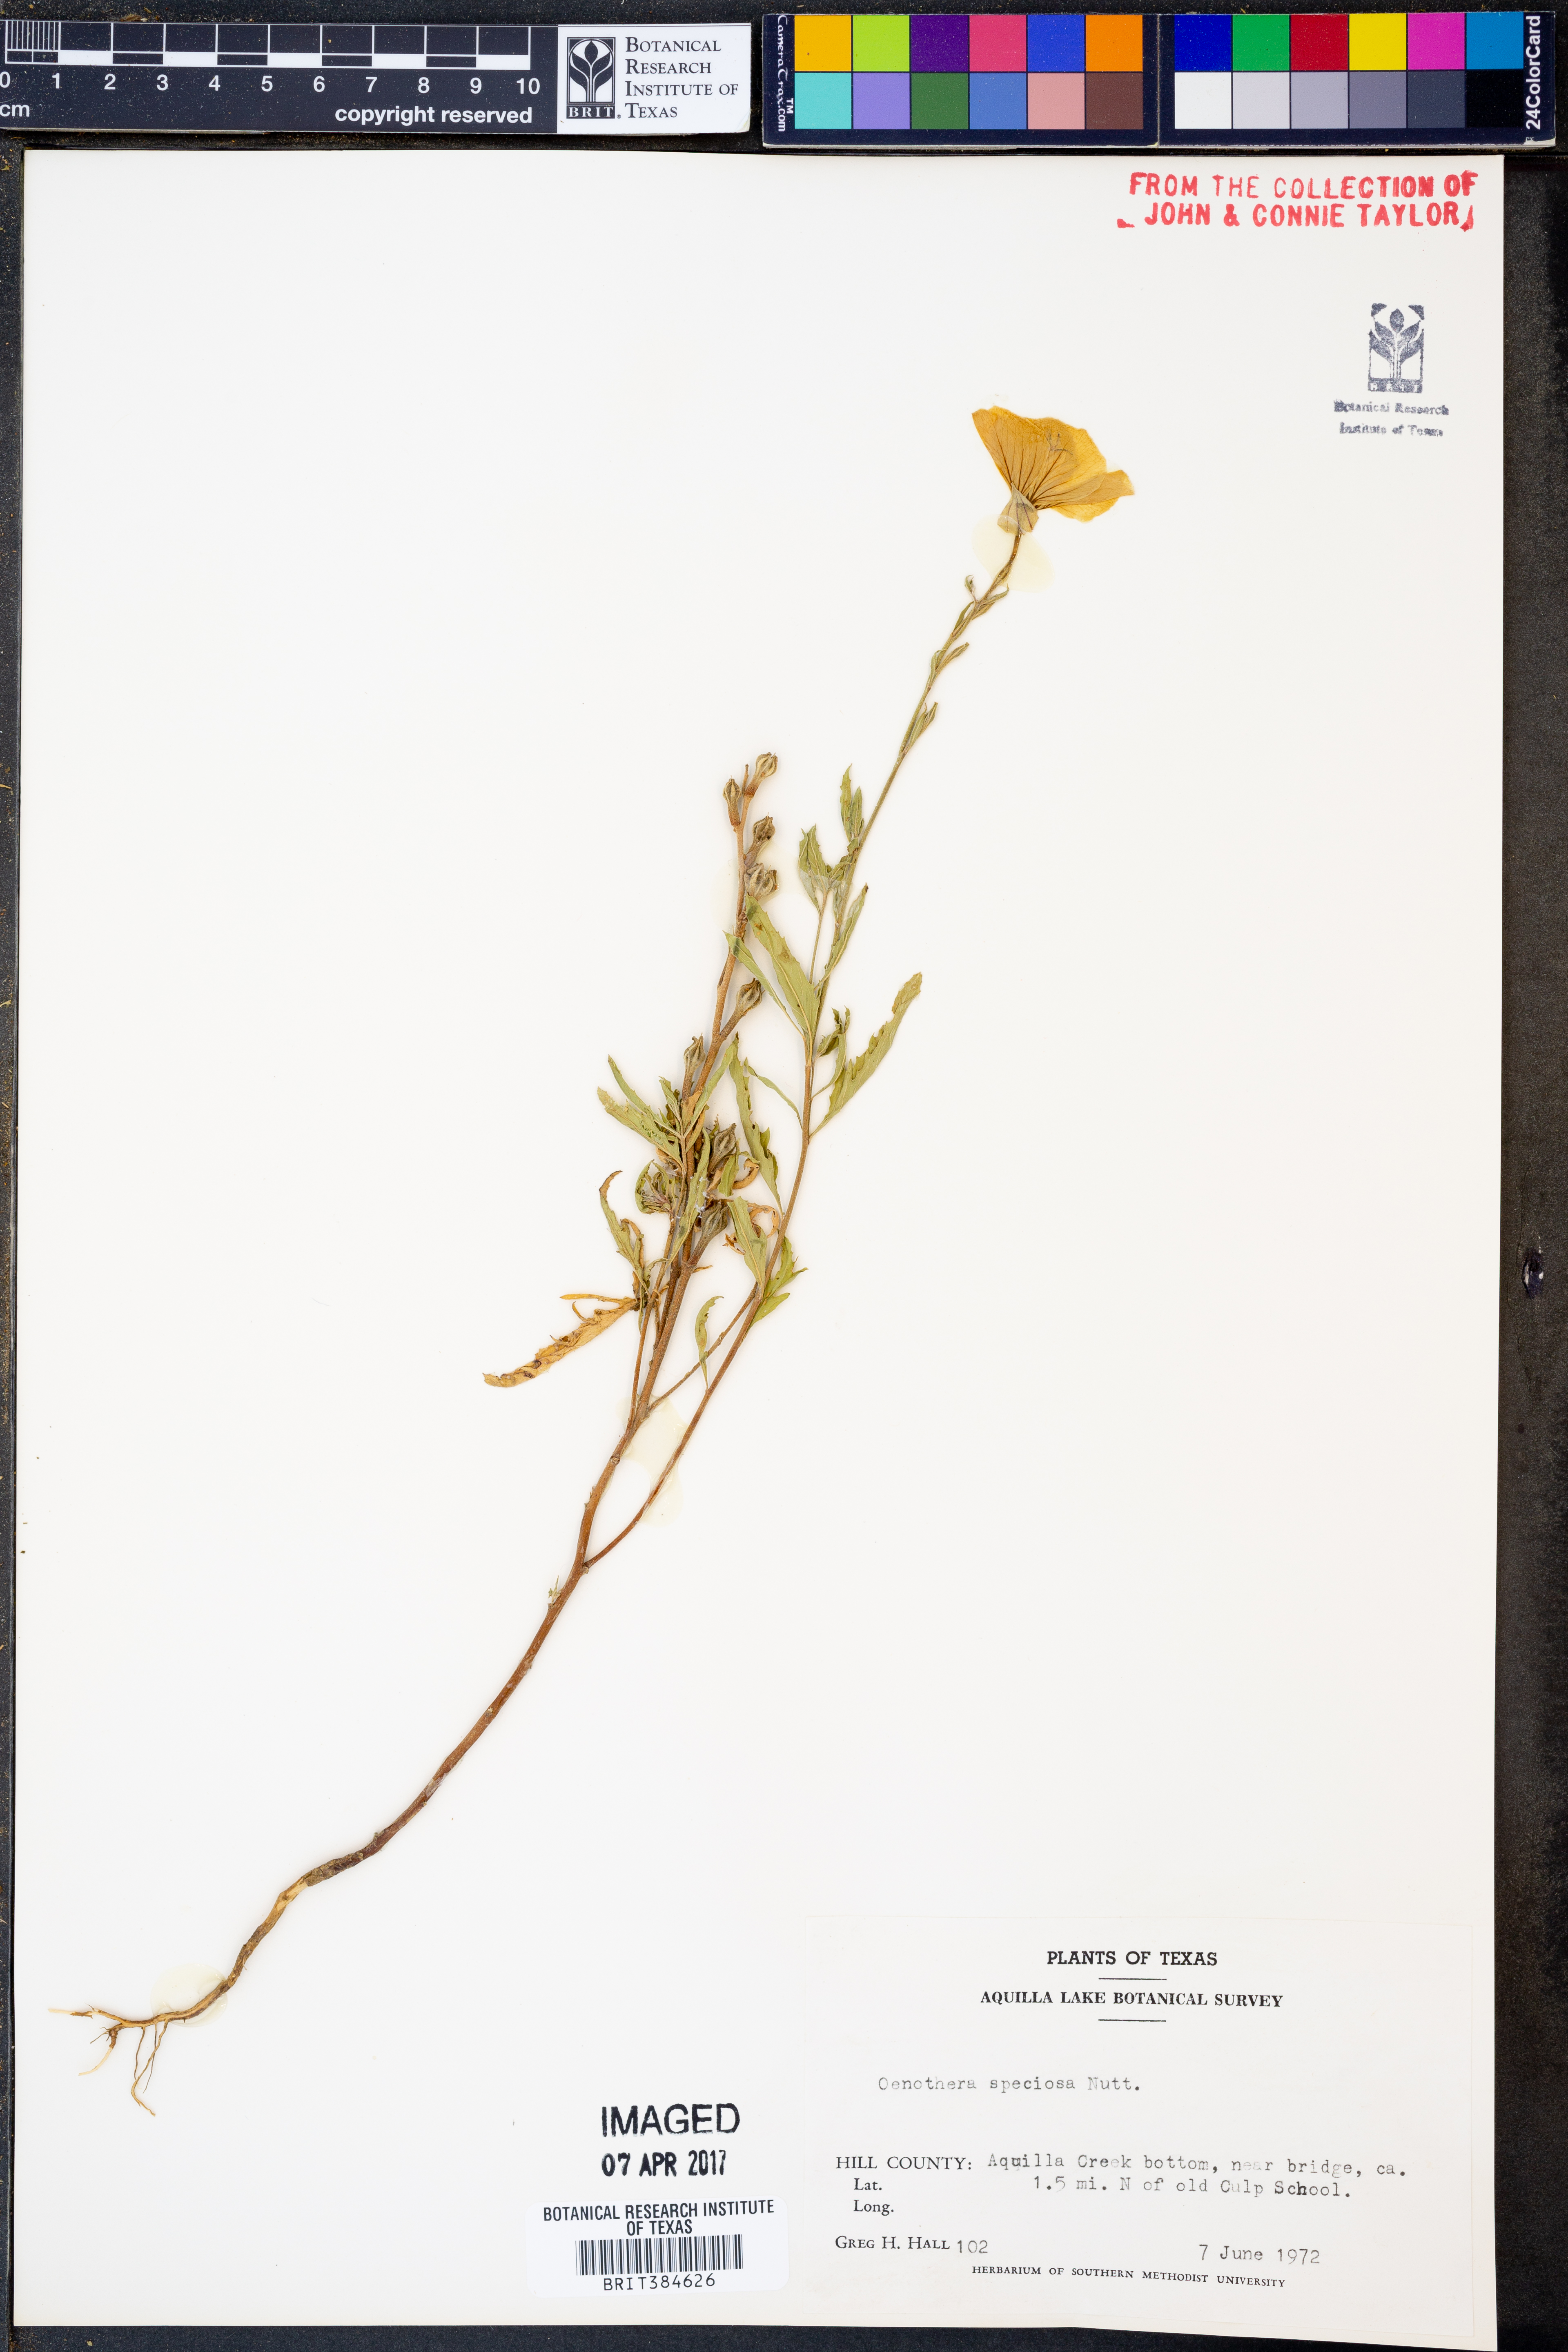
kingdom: Plantae
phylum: Tracheophyta
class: Magnoliopsida
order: Myrtales
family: Onagraceae
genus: Oenothera
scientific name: Oenothera speciosa
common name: White evening-primrose
